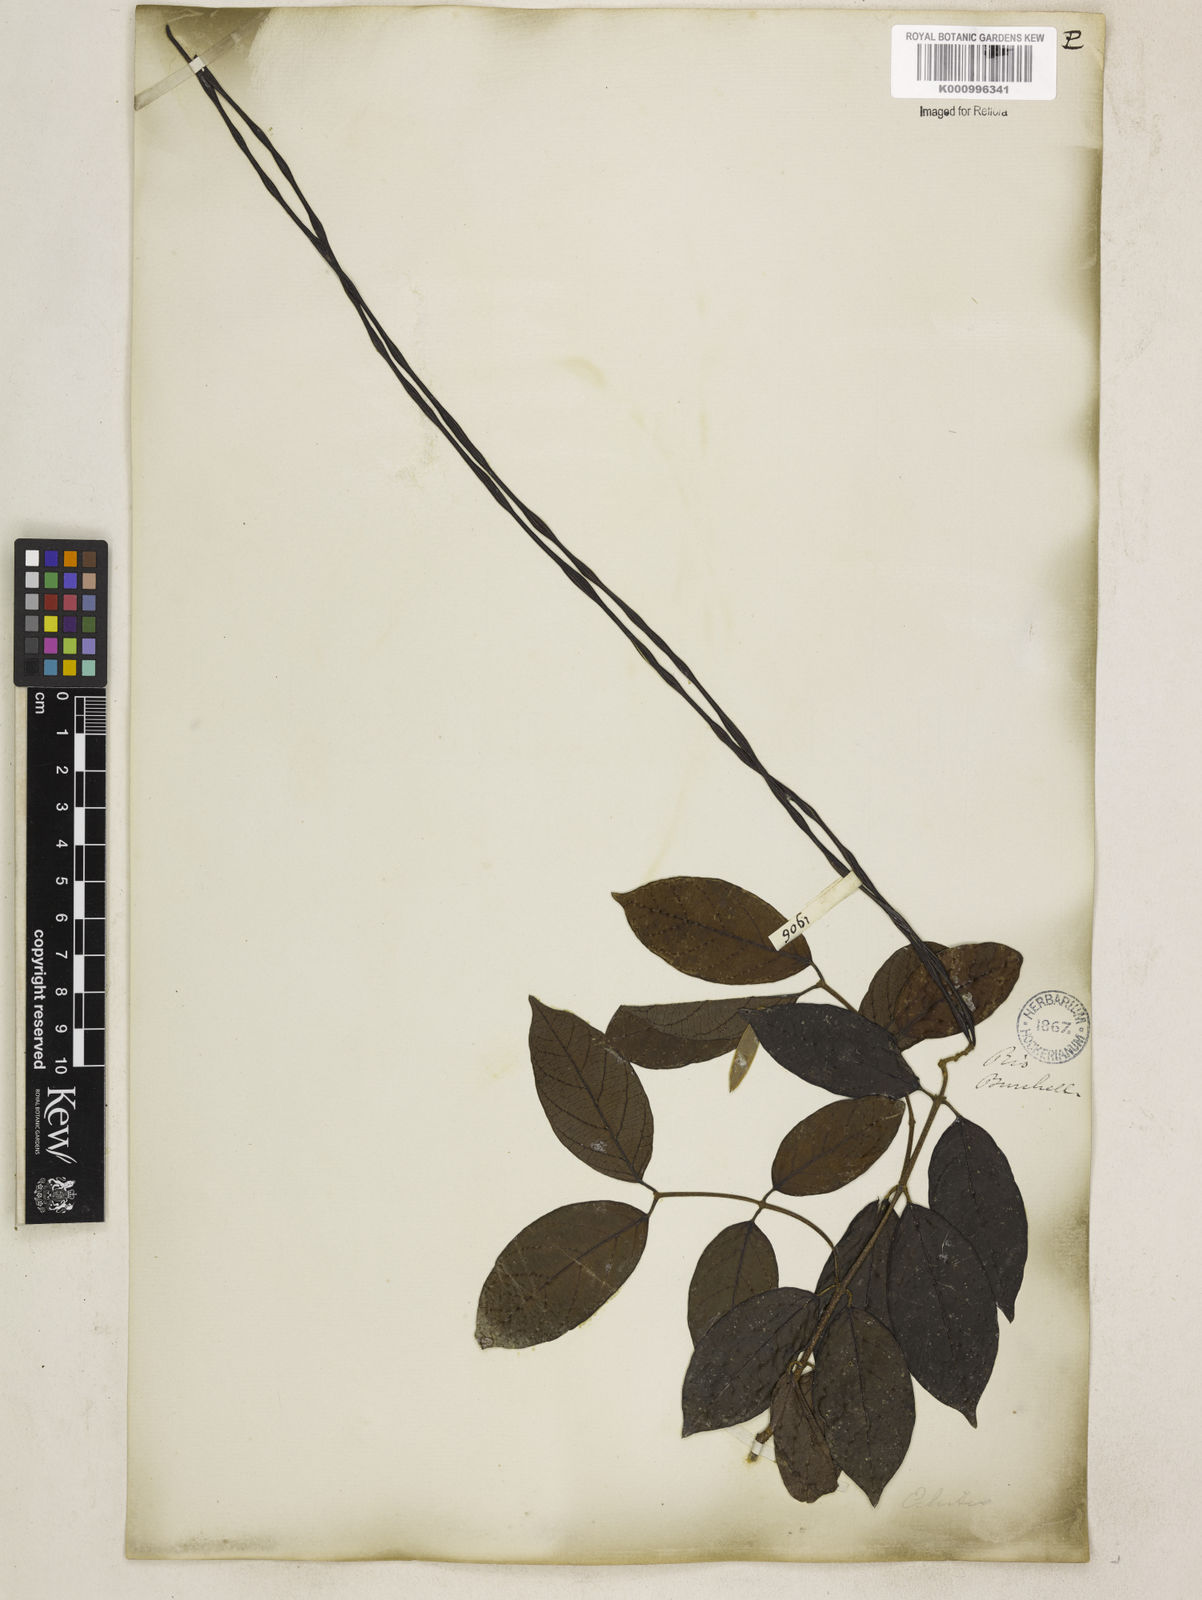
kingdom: Plantae
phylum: Tracheophyta
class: Magnoliopsida
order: Gentianales
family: Apocynaceae
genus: Forsteronia
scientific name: Forsteronia leptocarpa
